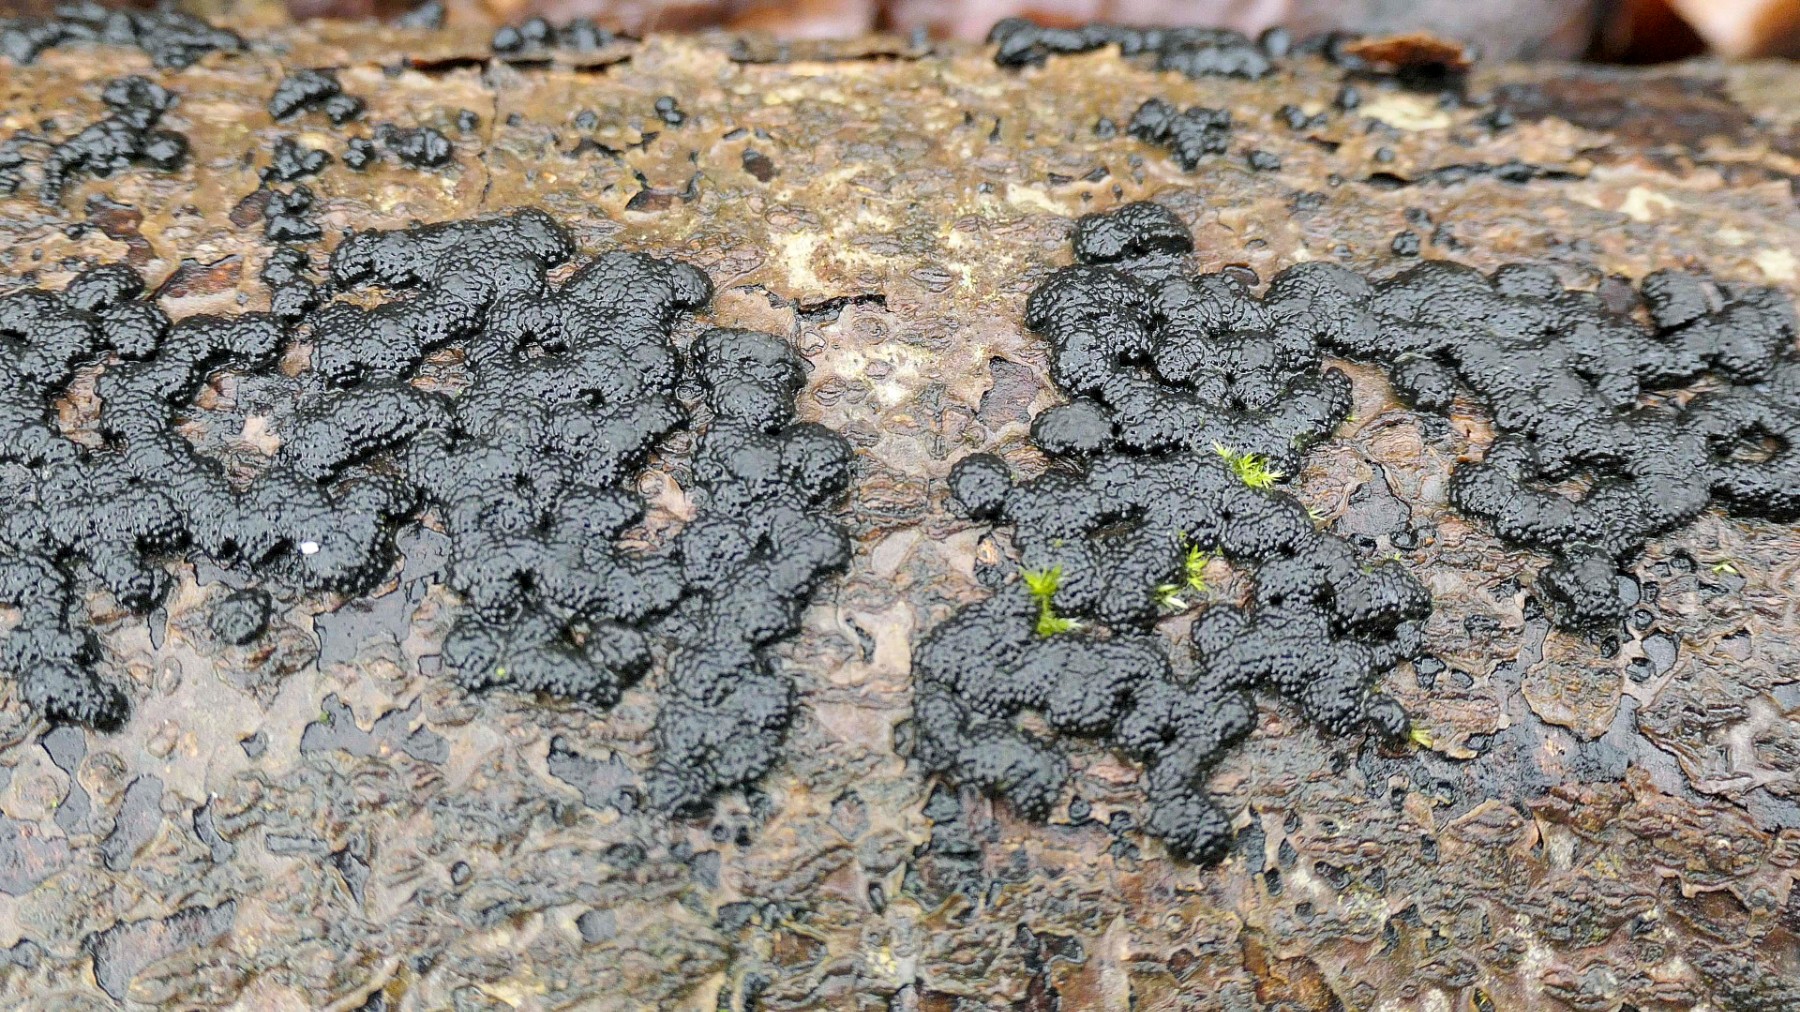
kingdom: Fungi
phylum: Ascomycota
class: Sordariomycetes
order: Xylariales
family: Hypoxylaceae
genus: Jackrogersella
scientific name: Jackrogersella cohaerens
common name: sammenflydende kulbær
